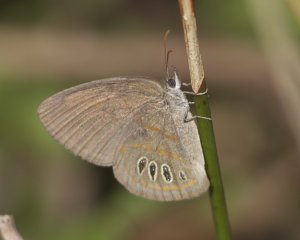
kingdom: Animalia
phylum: Arthropoda
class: Insecta
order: Lepidoptera
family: Nymphalidae
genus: Euptychia
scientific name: Euptychia phocion
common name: Georgia Satyr
